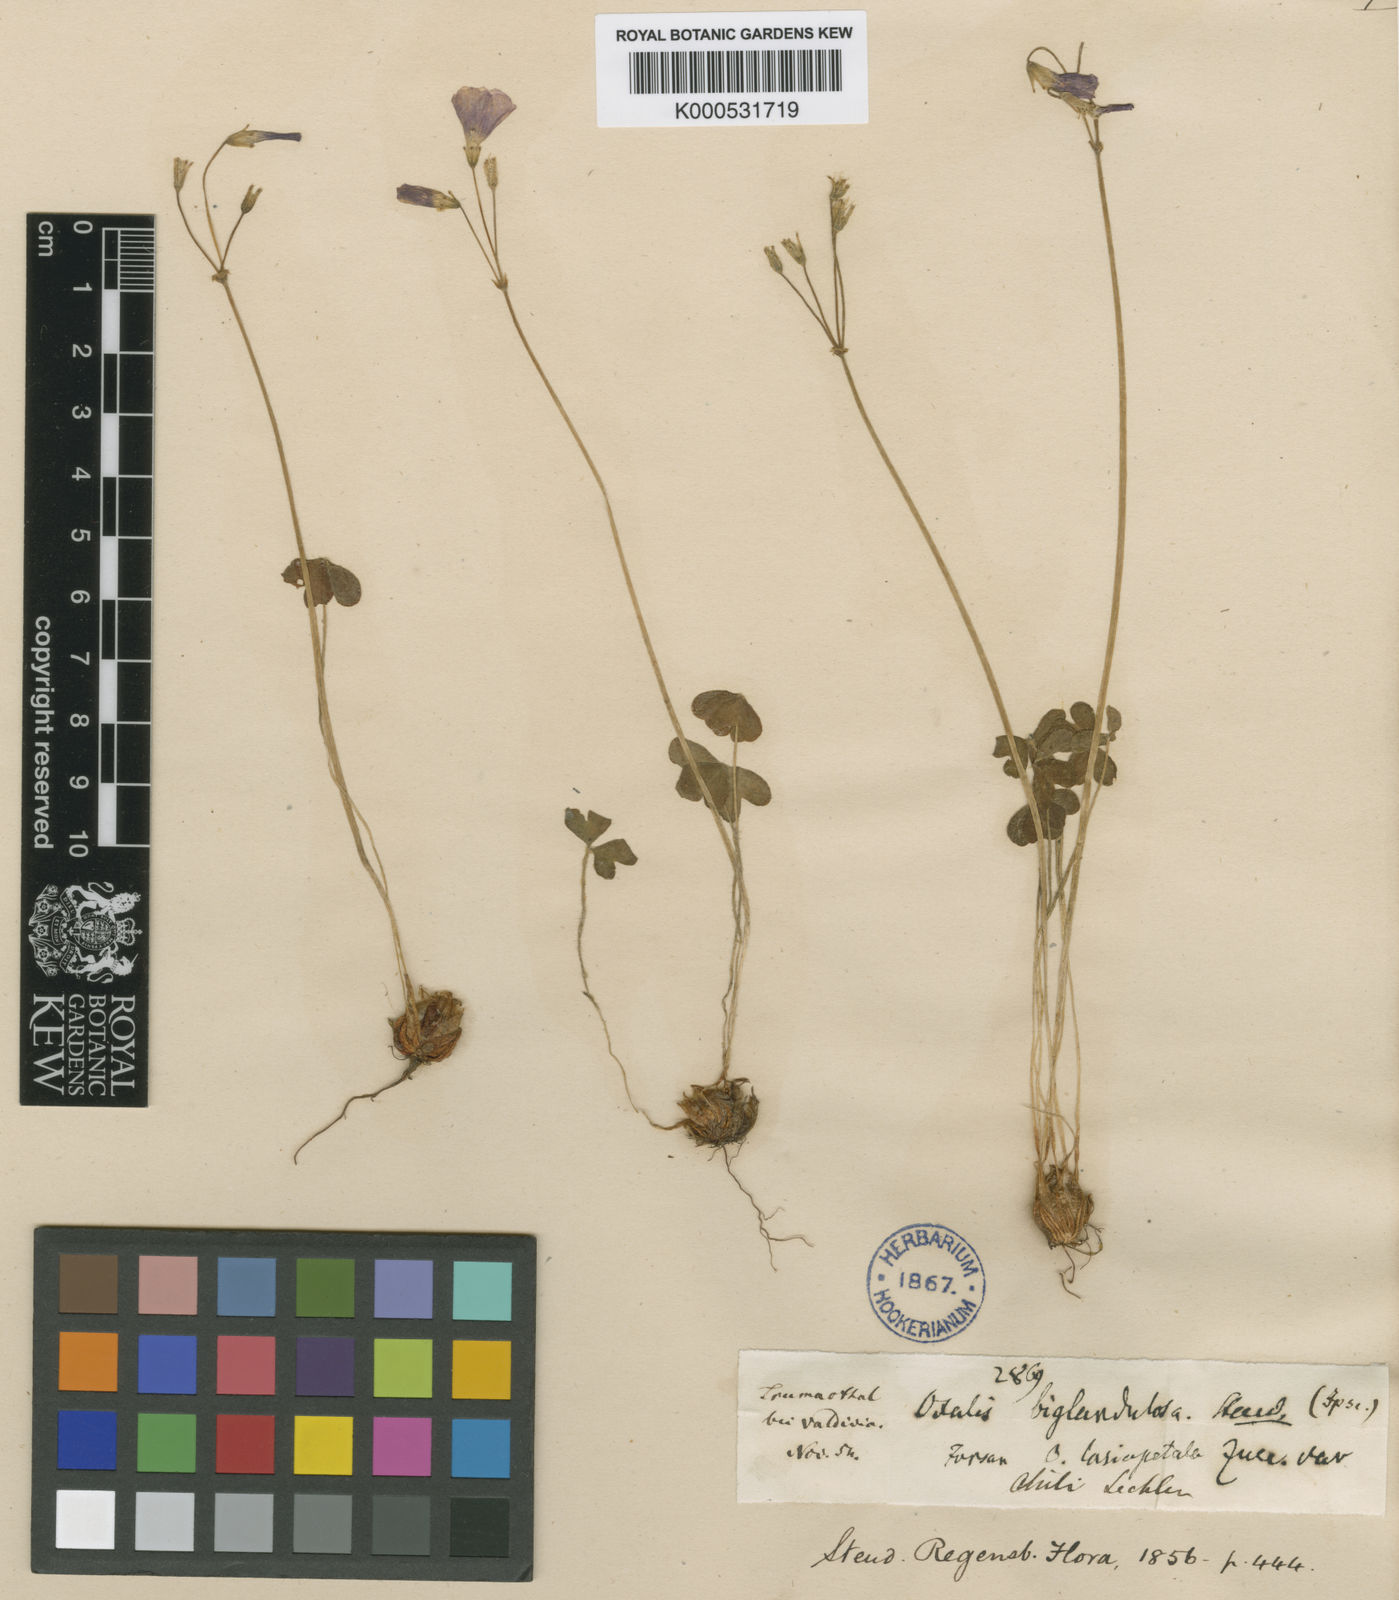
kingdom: Plantae
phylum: Tracheophyta
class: Magnoliopsida
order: Oxalidales
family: Oxalidaceae
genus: Oxalis
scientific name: Oxalis arenaria
